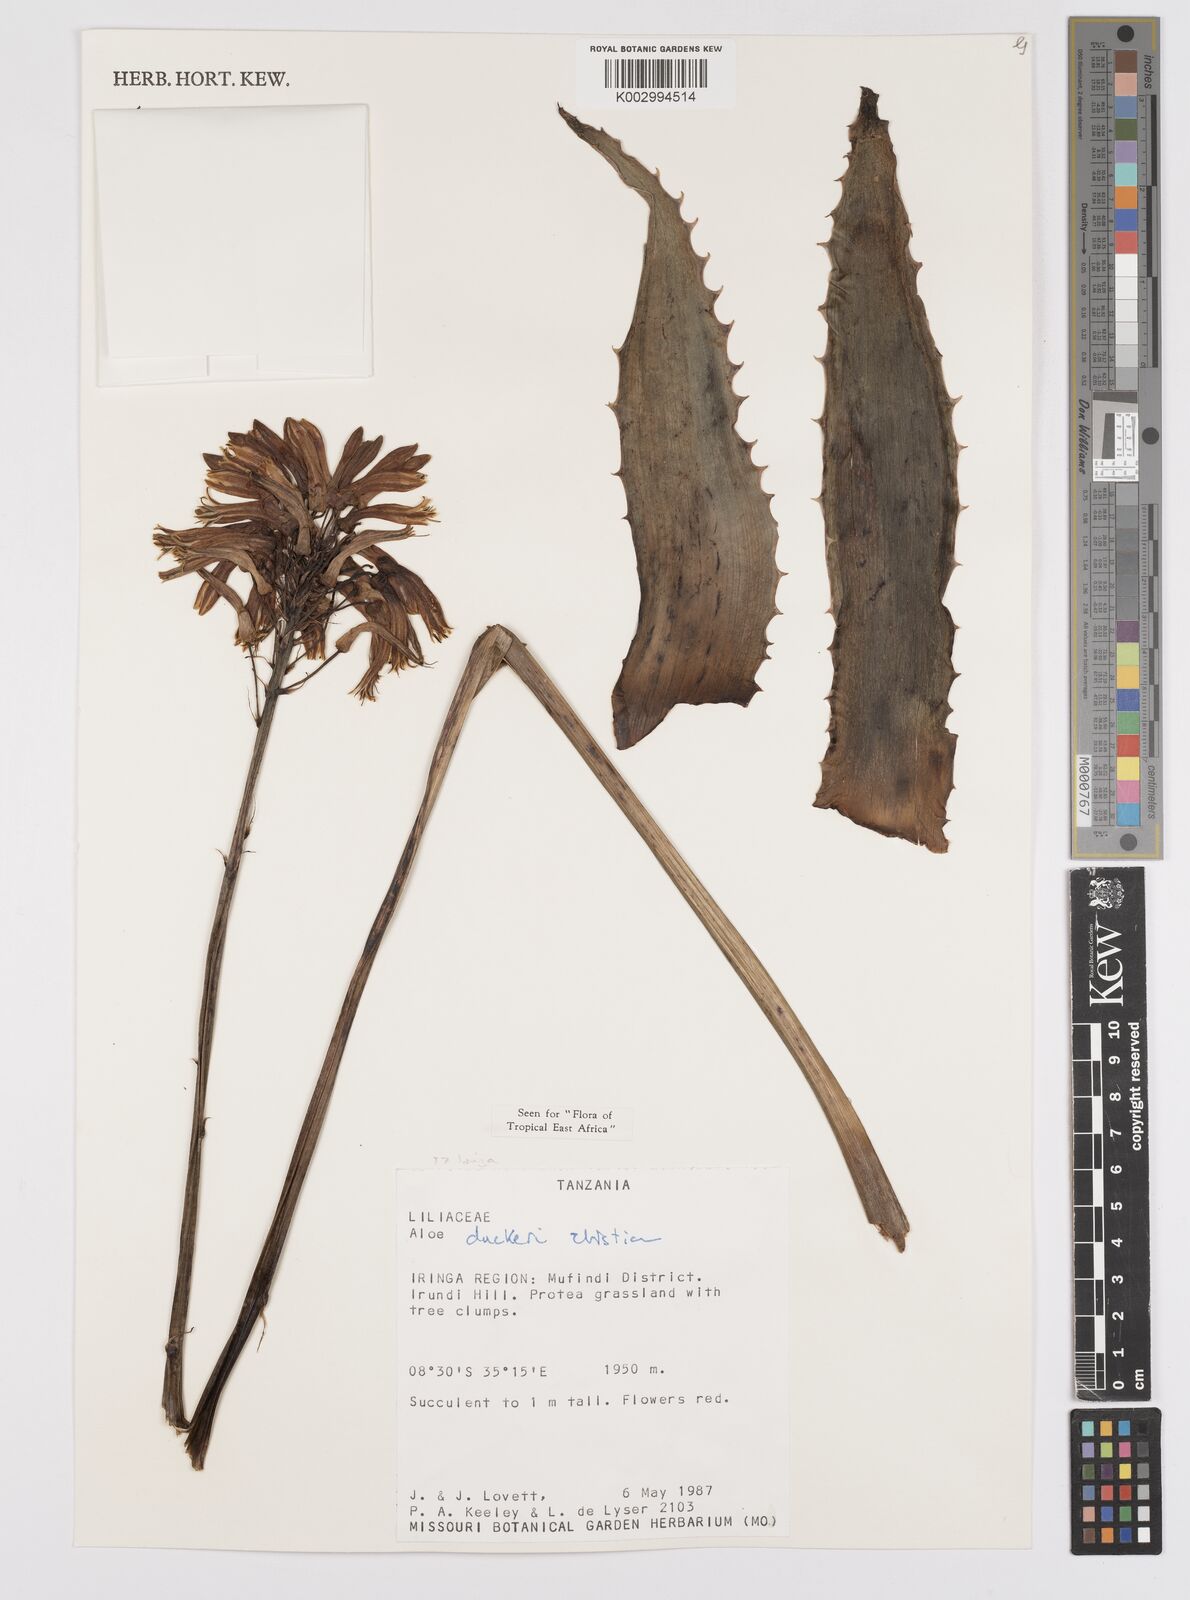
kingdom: Plantae
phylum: Tracheophyta
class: Liliopsida
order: Asparagales
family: Asphodelaceae
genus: Aloe
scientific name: Aloe duckeri
